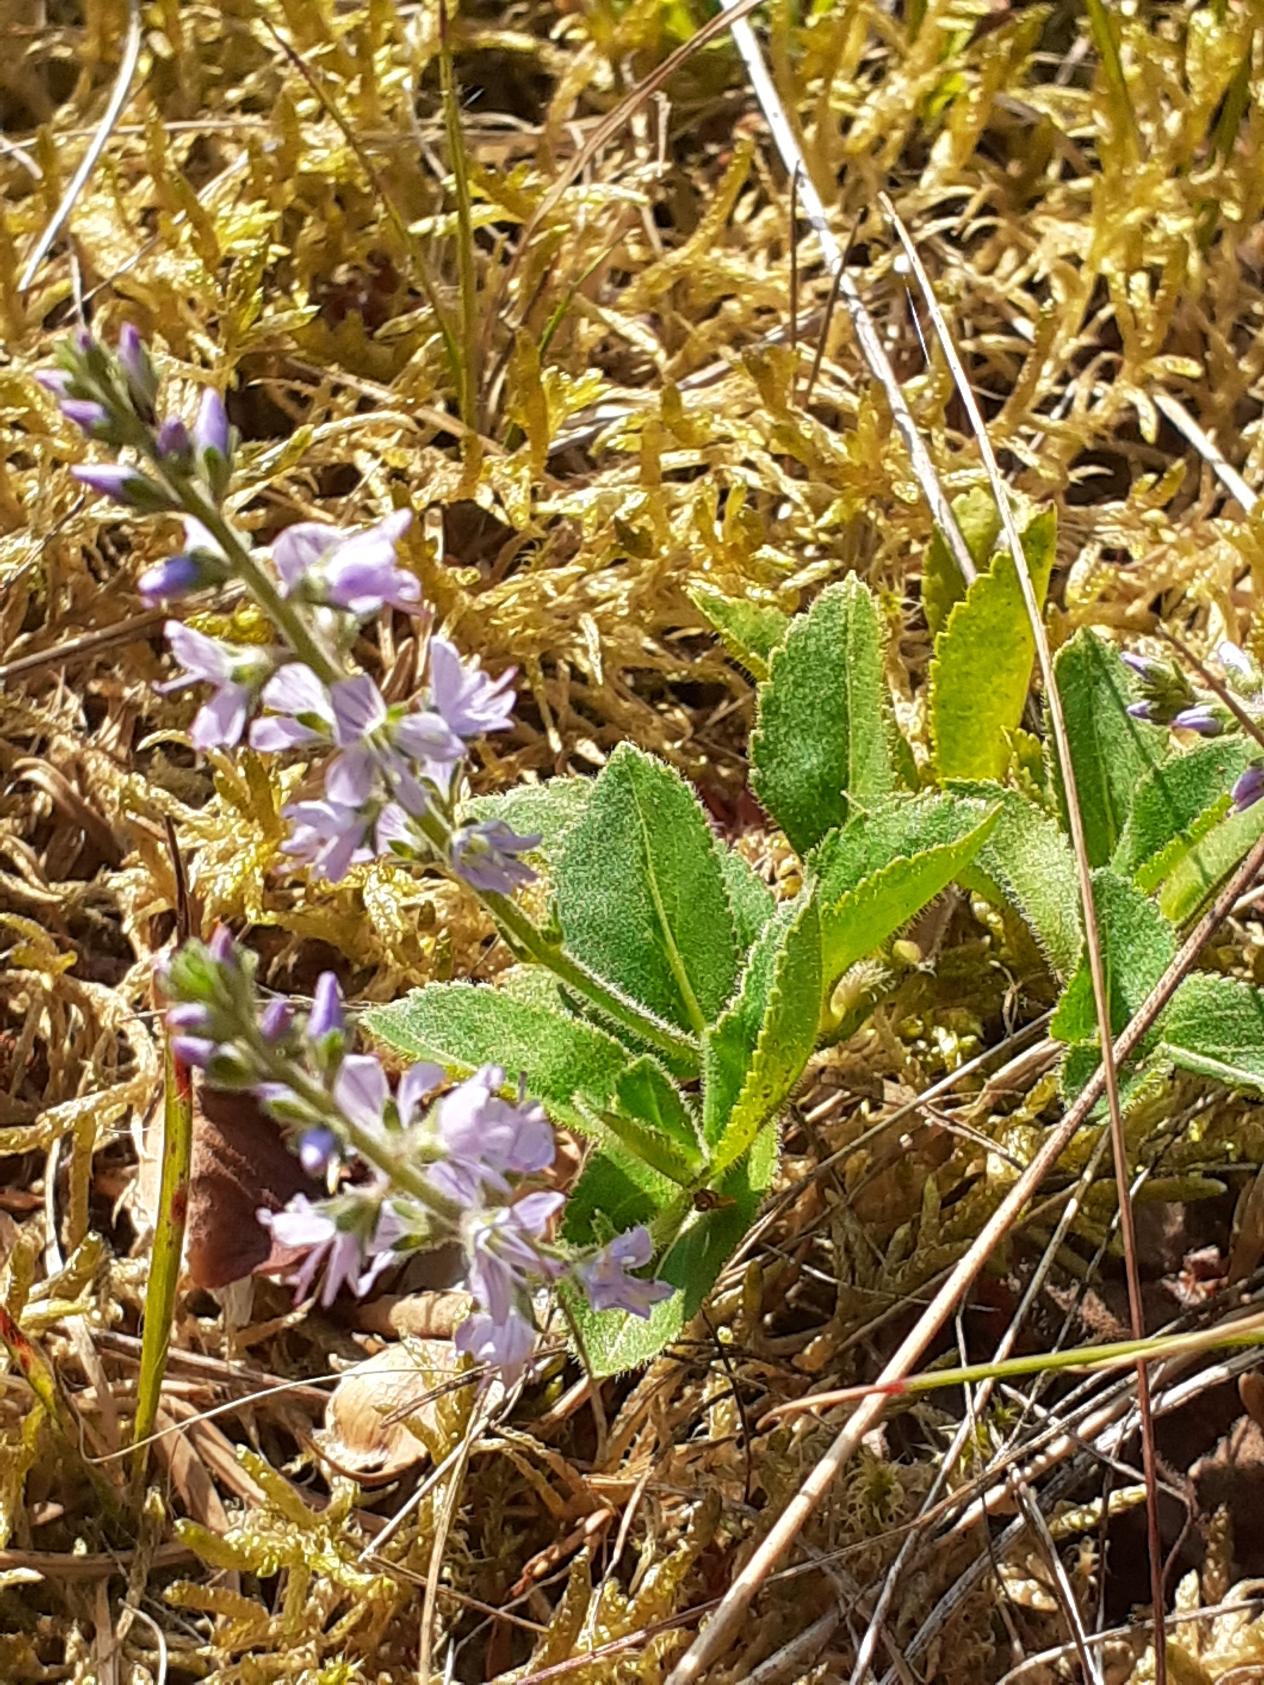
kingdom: Plantae
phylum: Tracheophyta
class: Magnoliopsida
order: Lamiales
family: Plantaginaceae
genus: Veronica
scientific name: Veronica officinalis
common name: Læge-ærenpris
